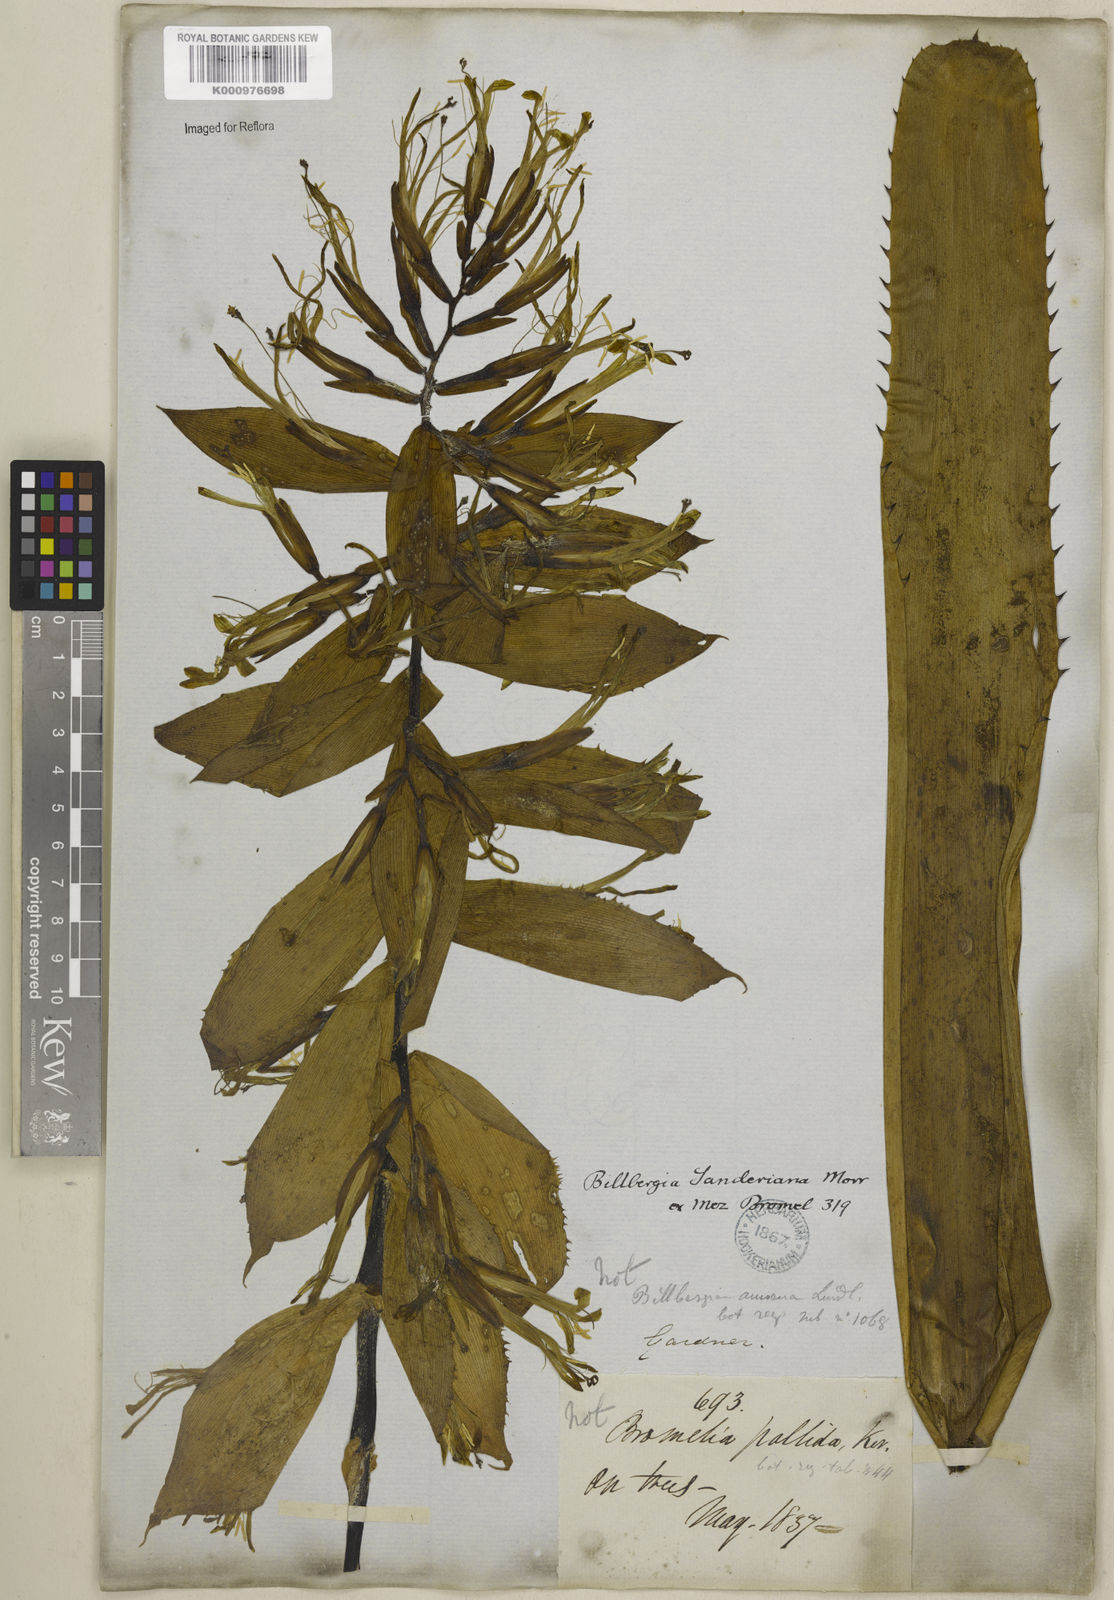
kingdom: Plantae
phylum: Tracheophyta
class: Liliopsida
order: Poales
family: Bromeliaceae
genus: Billbergia
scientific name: Billbergia sanderiana
